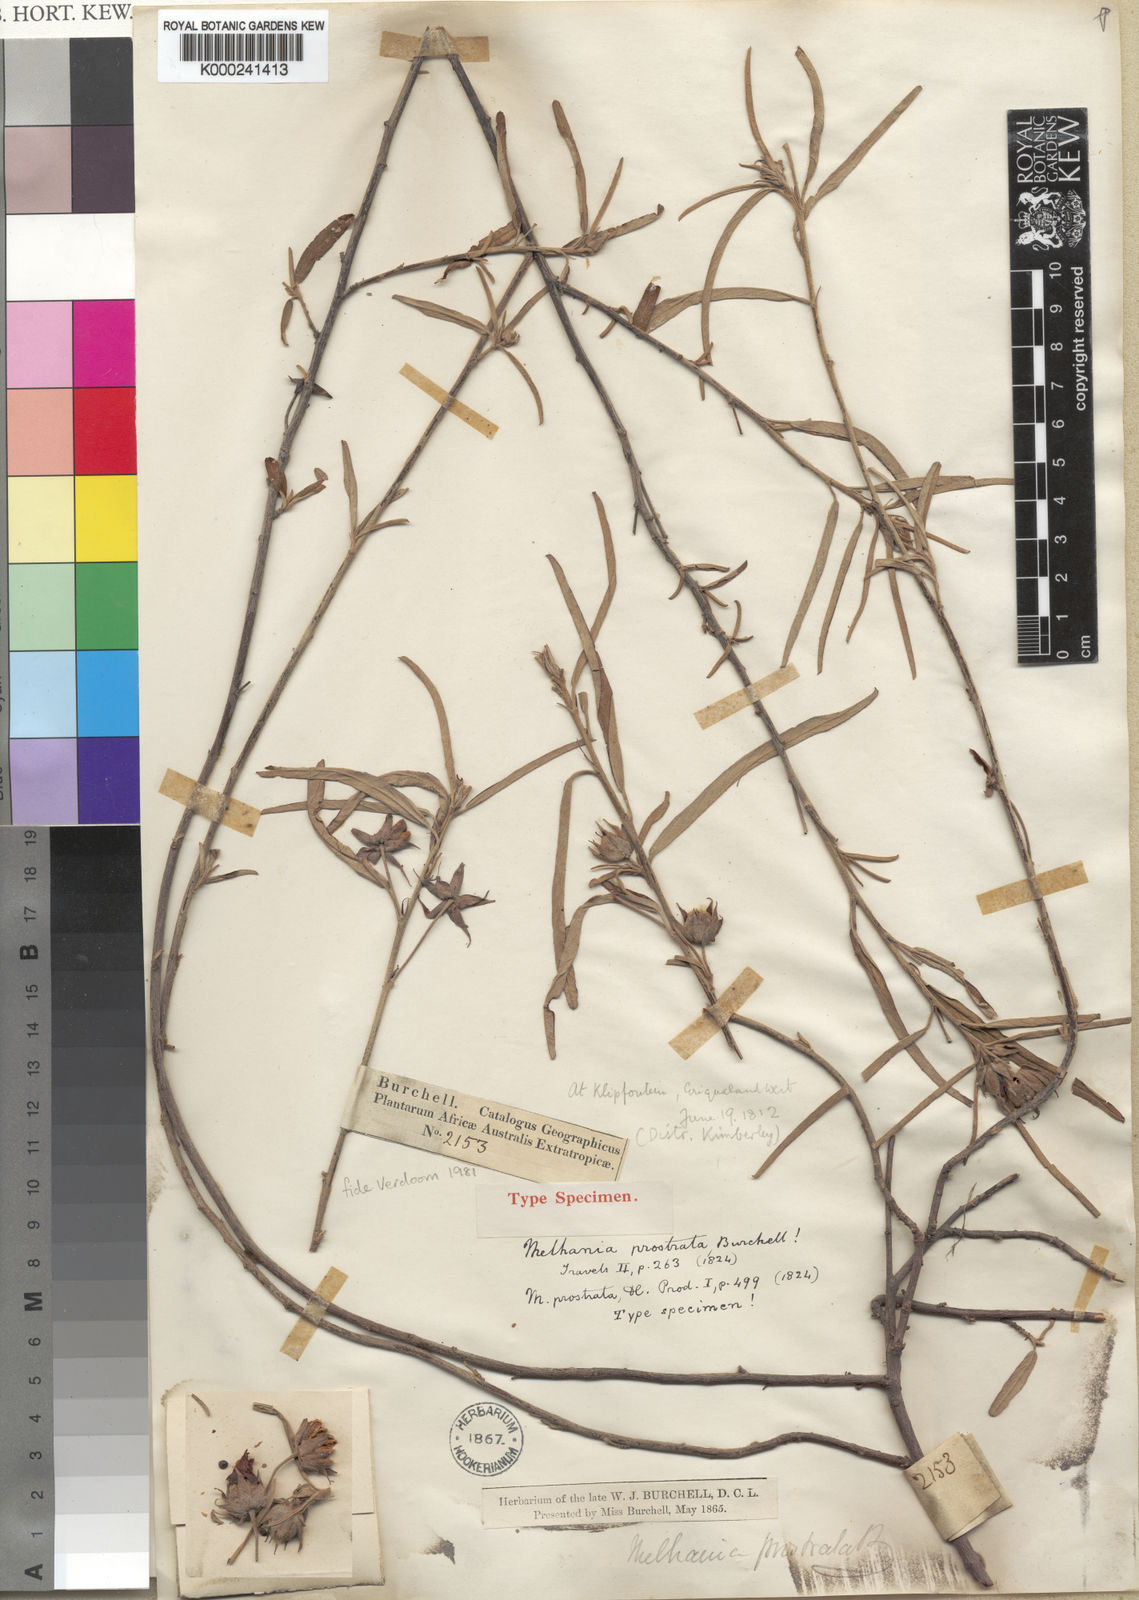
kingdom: Plantae
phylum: Tracheophyta
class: Magnoliopsida
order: Malvales
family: Malvaceae
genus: Melhania
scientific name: Melhania prostrata
